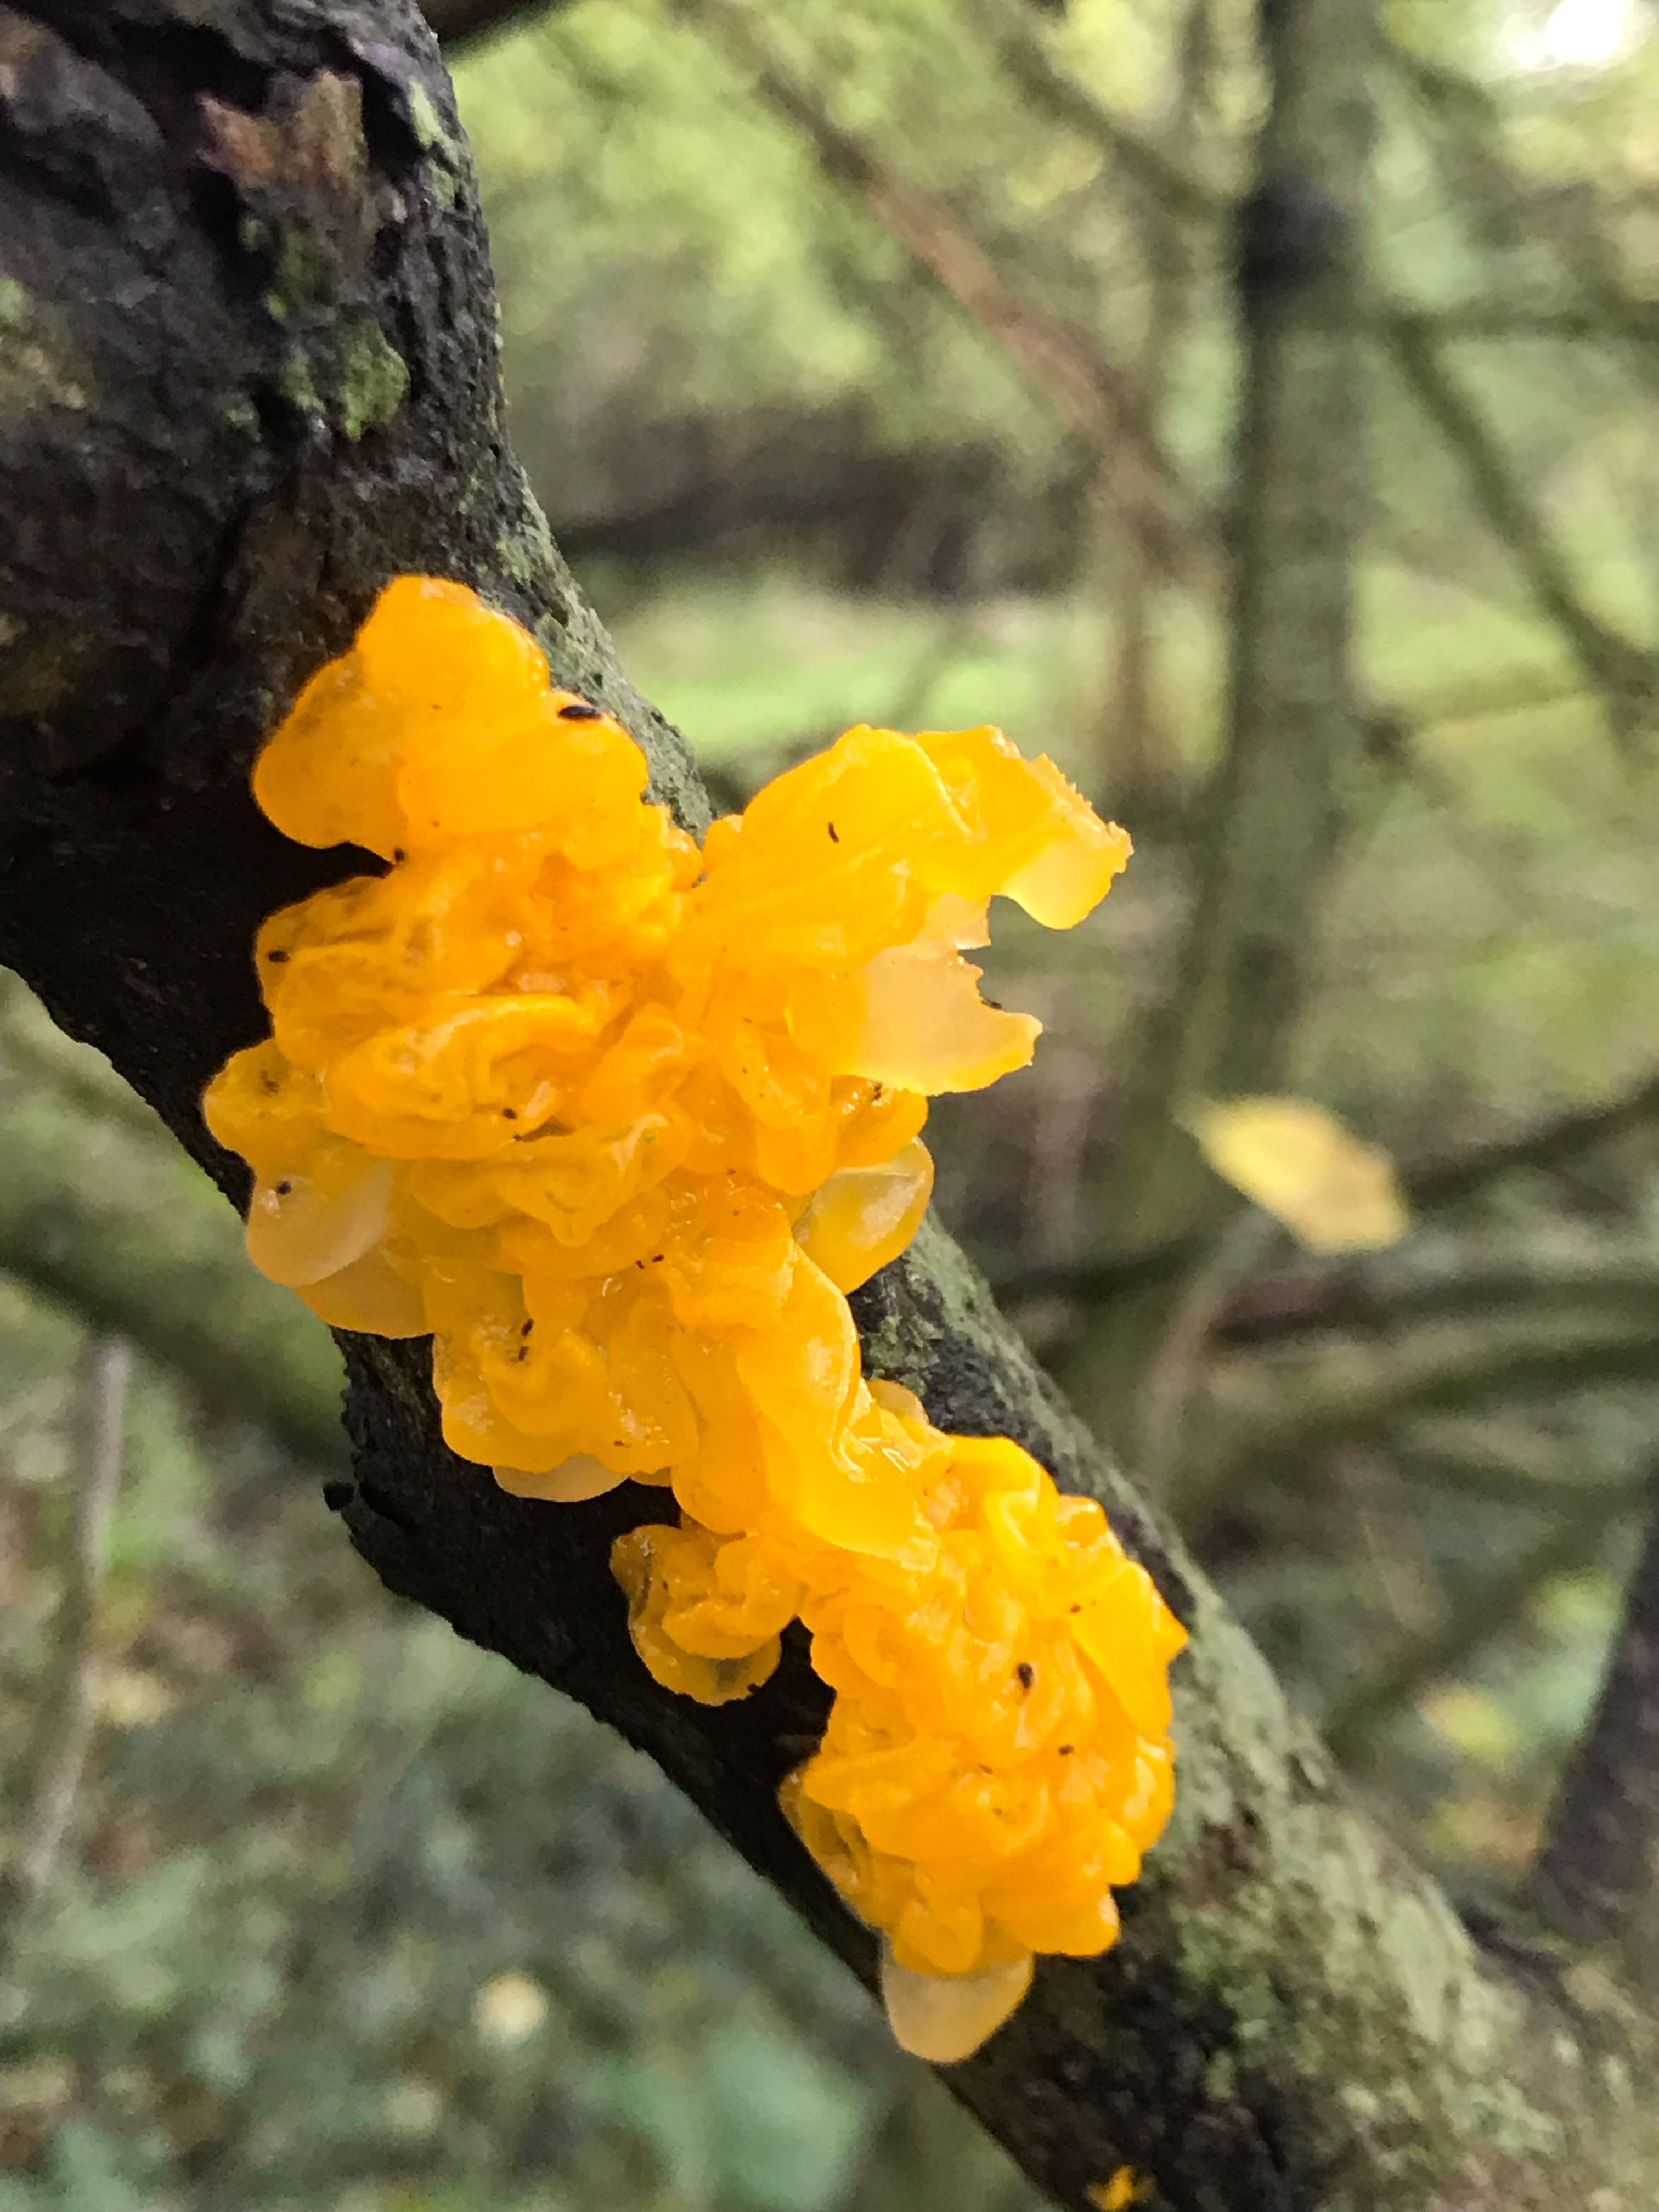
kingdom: Fungi
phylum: Basidiomycota
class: Tremellomycetes
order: Tremellales
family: Tremellaceae
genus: Tremella
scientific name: Tremella mesenterica
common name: gul bævresvamp
